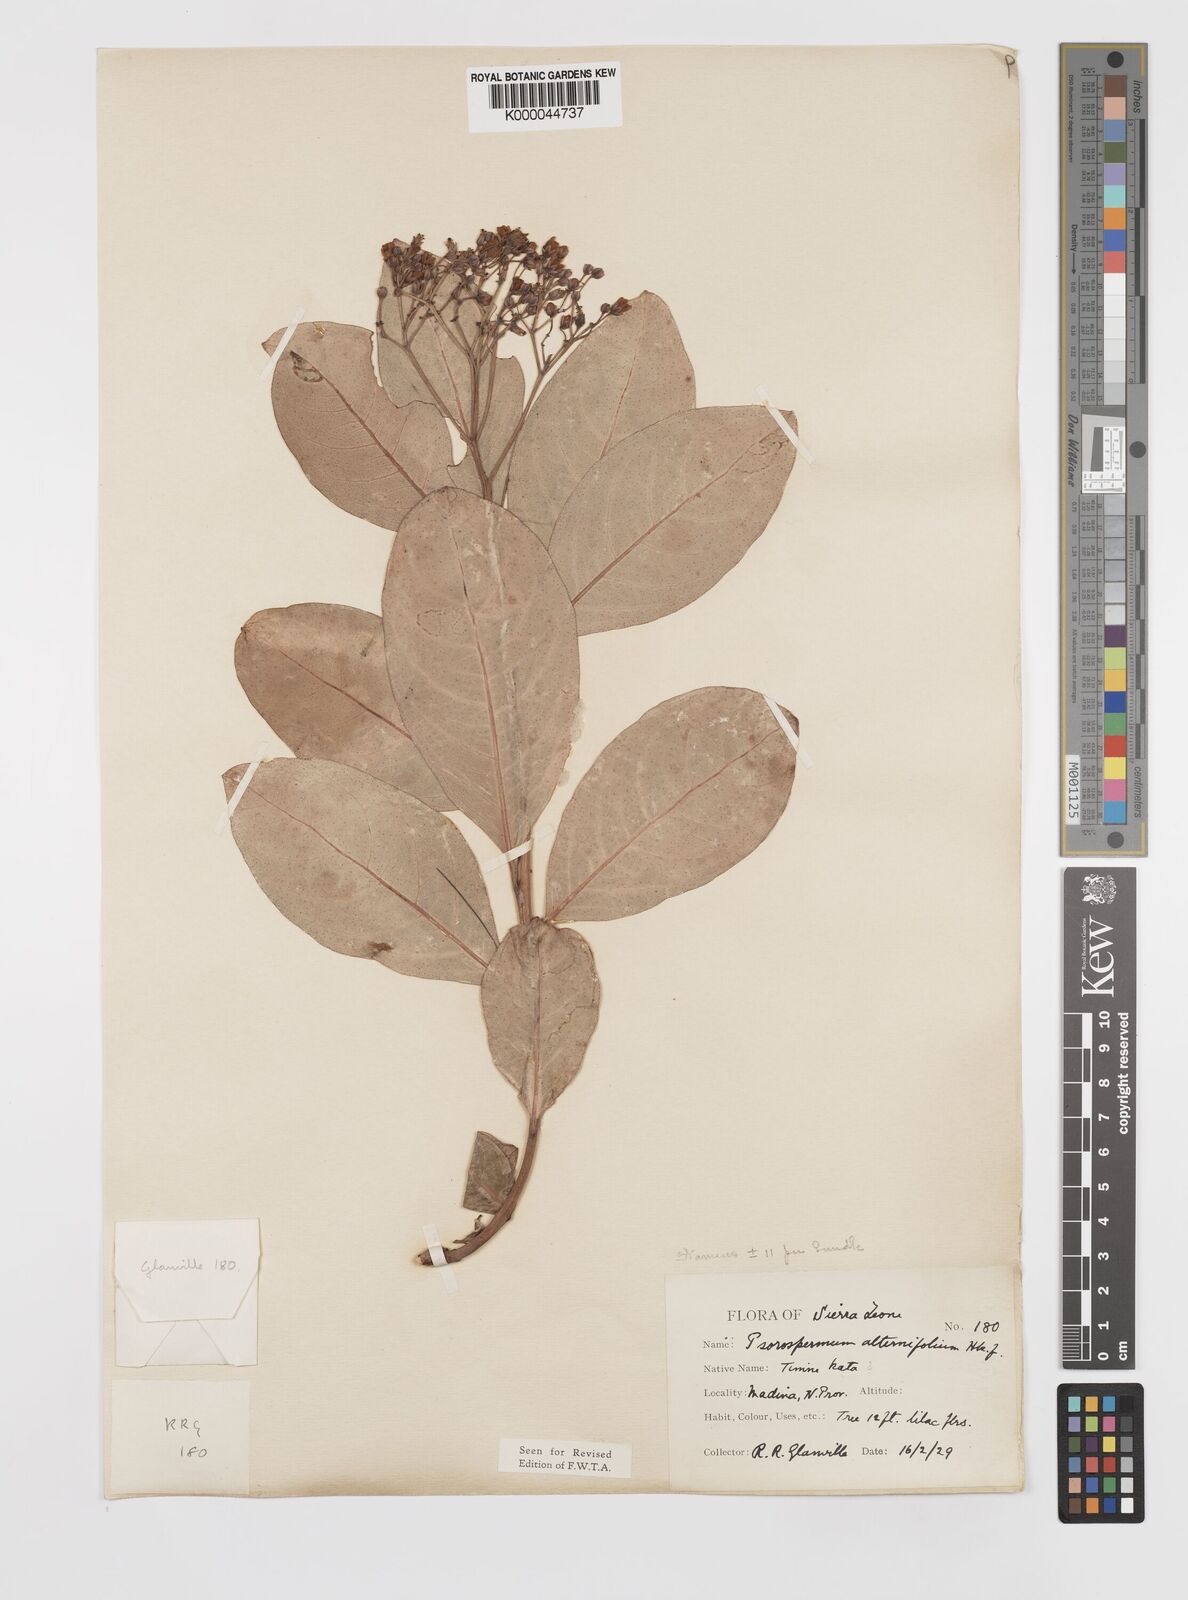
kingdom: Plantae
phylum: Tracheophyta
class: Magnoliopsida
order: Malpighiales
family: Hypericaceae
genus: Psorospermum
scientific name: Psorospermum alternifolium
